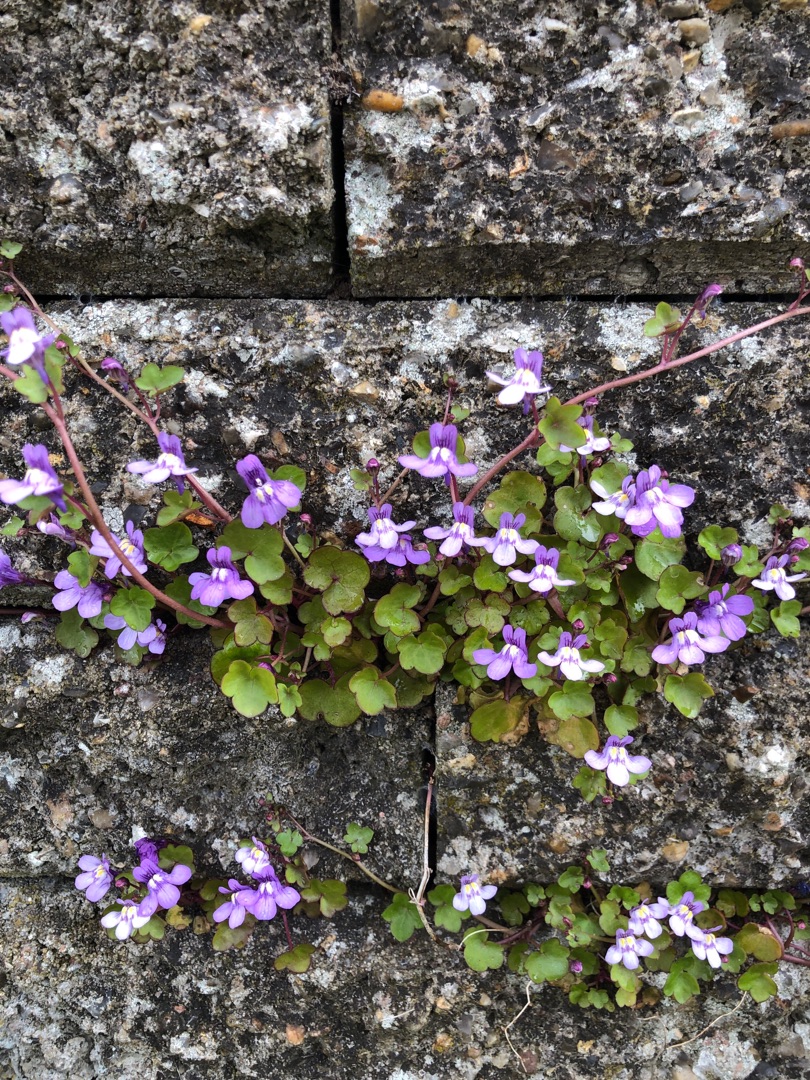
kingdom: Plantae
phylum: Tracheophyta
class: Magnoliopsida
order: Lamiales
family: Plantaginaceae
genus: Cymbalaria
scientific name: Cymbalaria muralis
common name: Vedbend-torskemund
